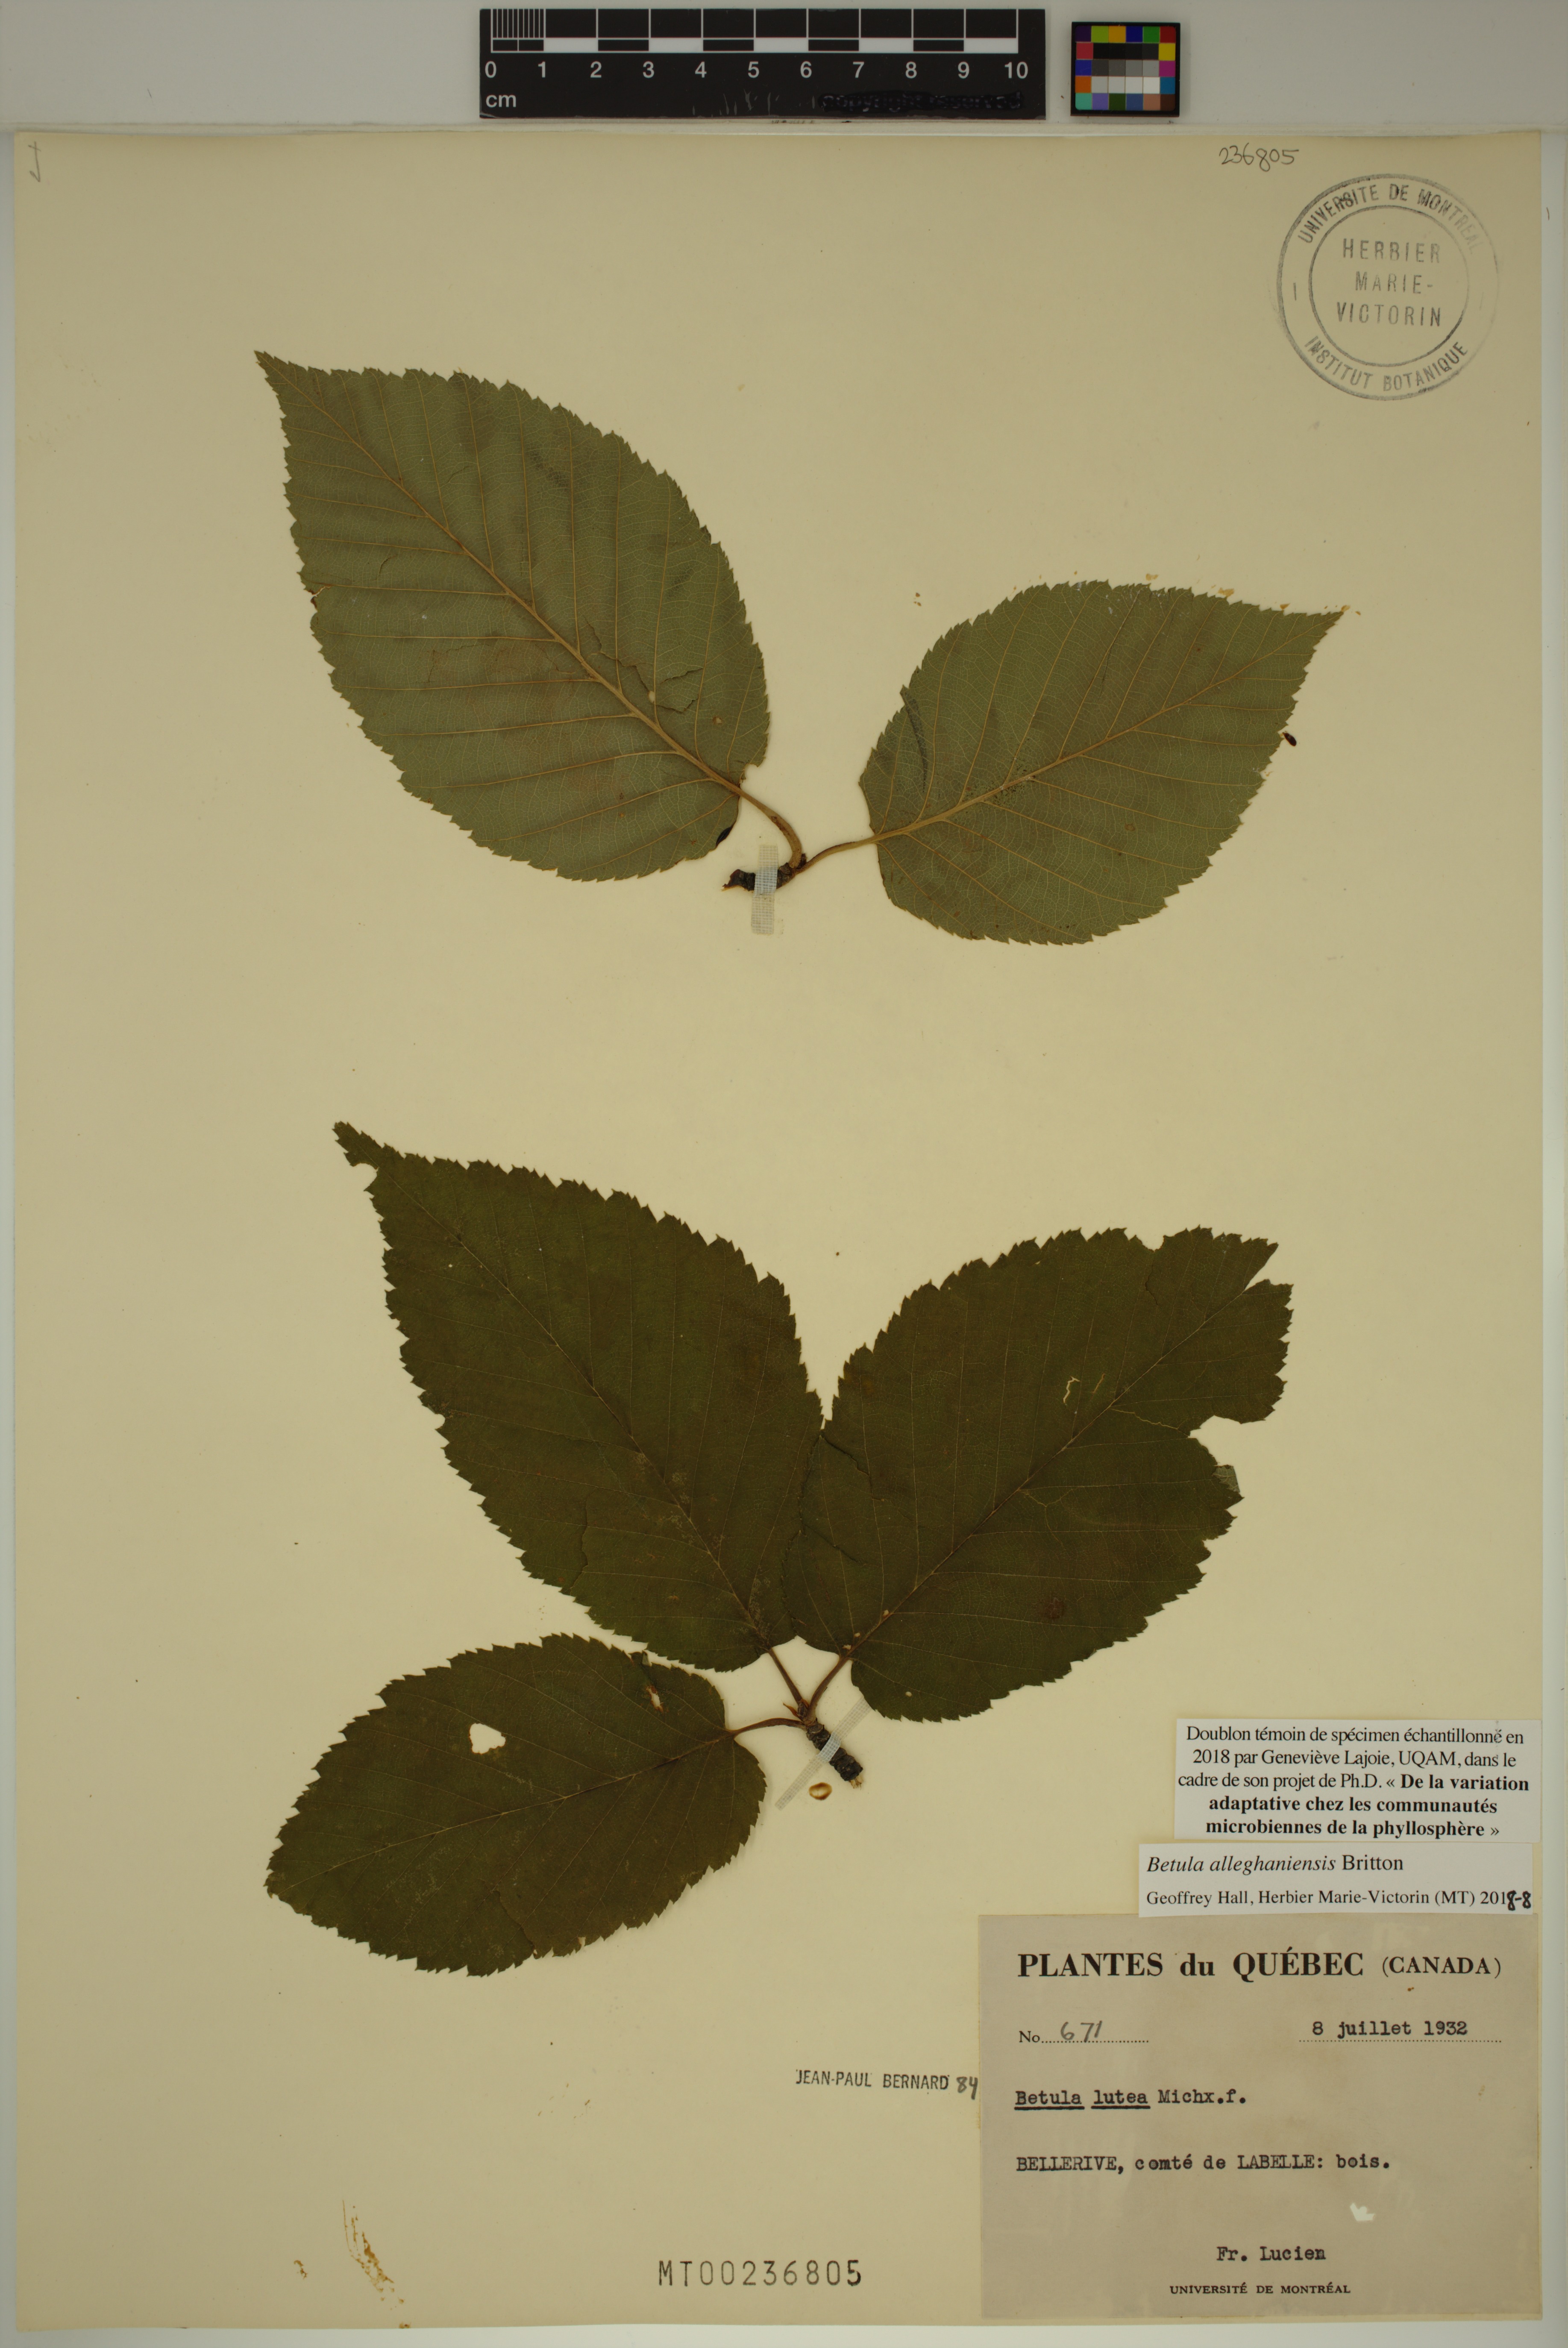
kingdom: Plantae
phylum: Tracheophyta
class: Magnoliopsida
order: Fagales
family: Betulaceae
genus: Betula
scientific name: Betula alleghaniensis
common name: Yellow birch
